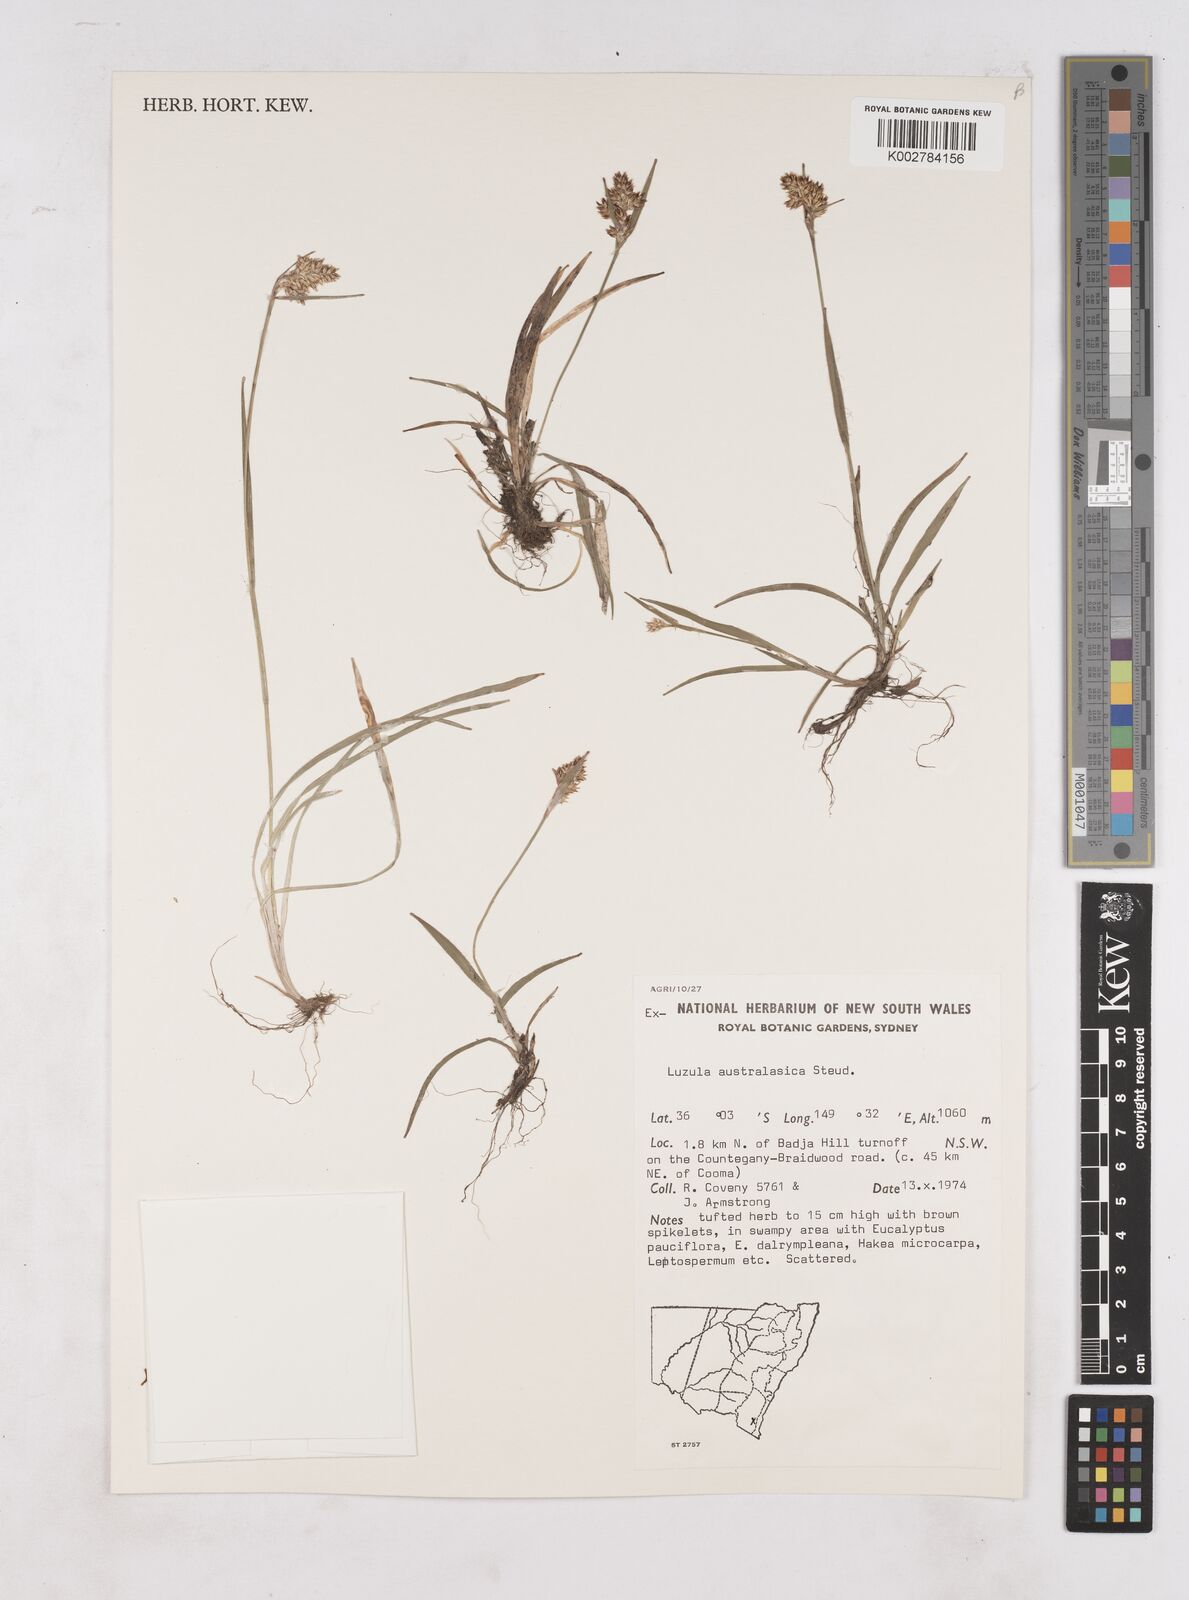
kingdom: Plantae
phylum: Tracheophyta
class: Liliopsida
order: Poales
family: Juncaceae
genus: Luzula
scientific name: Luzula australasica
